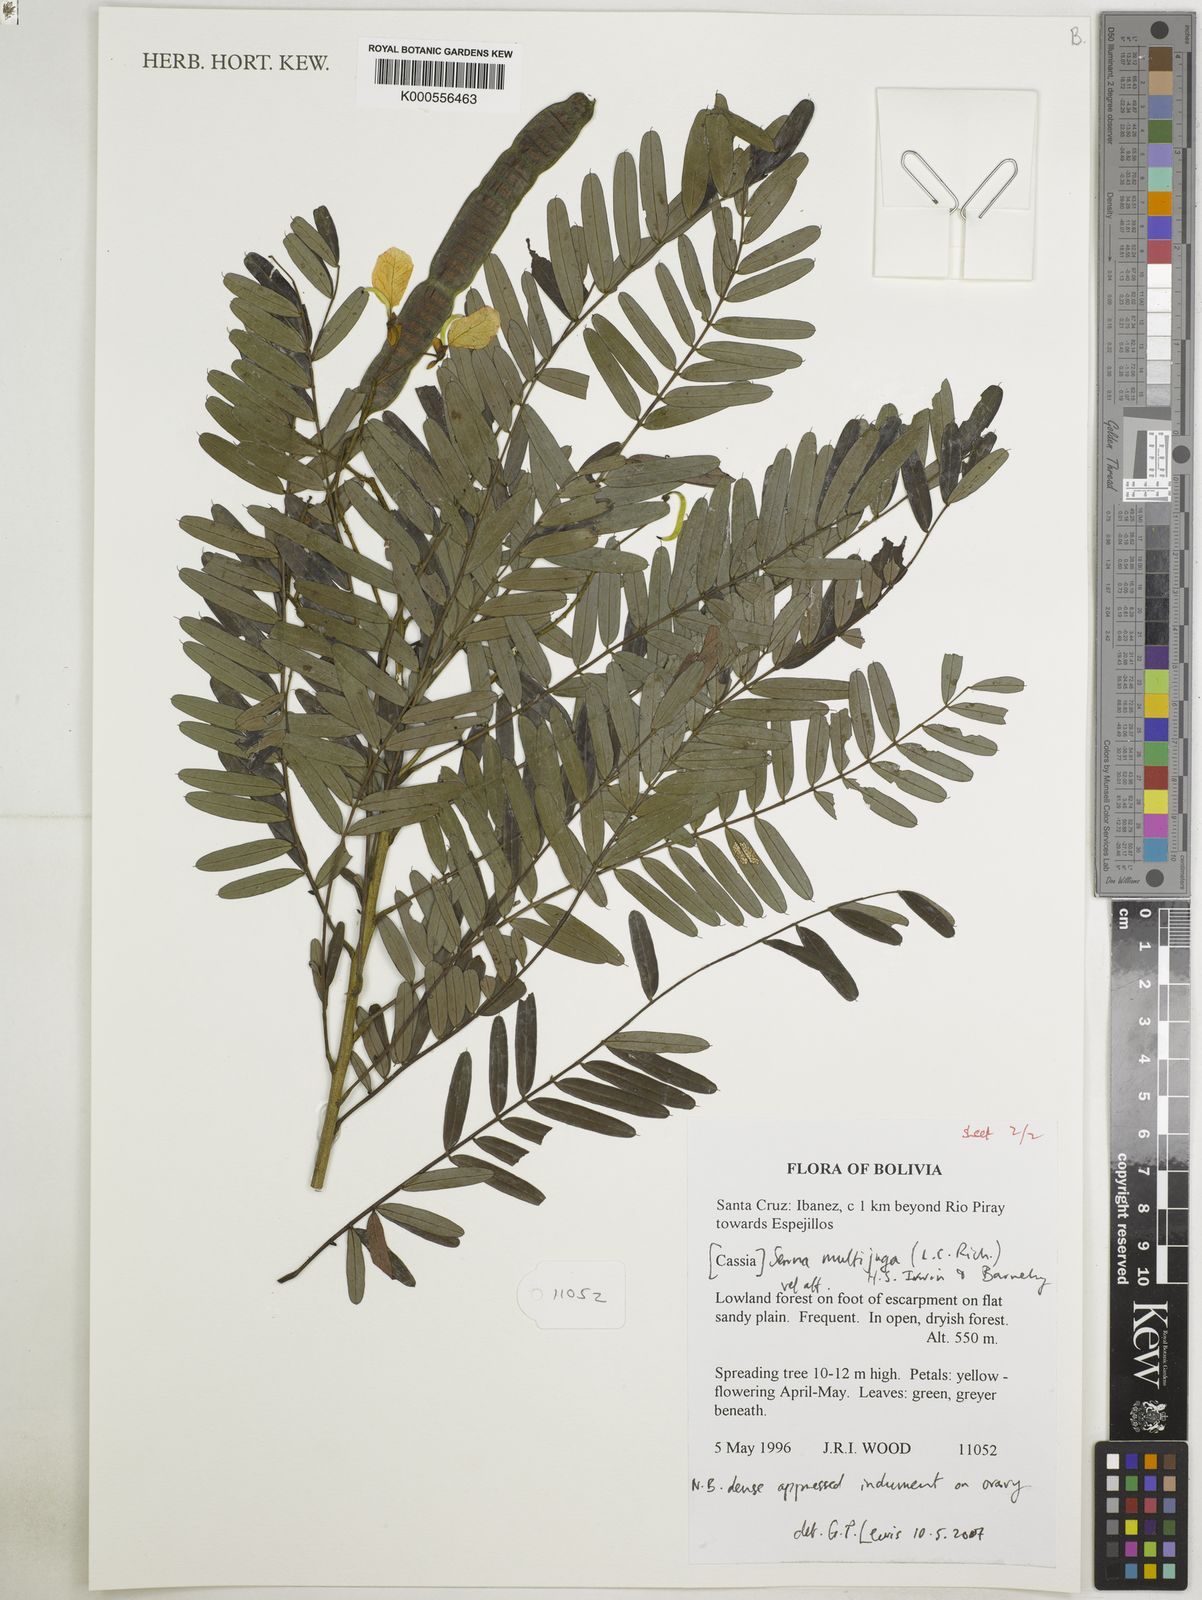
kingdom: Plantae
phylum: Tracheophyta
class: Magnoliopsida
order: Fabales
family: Fabaceae
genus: Senna
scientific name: Senna multijuga
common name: False sicklepod
